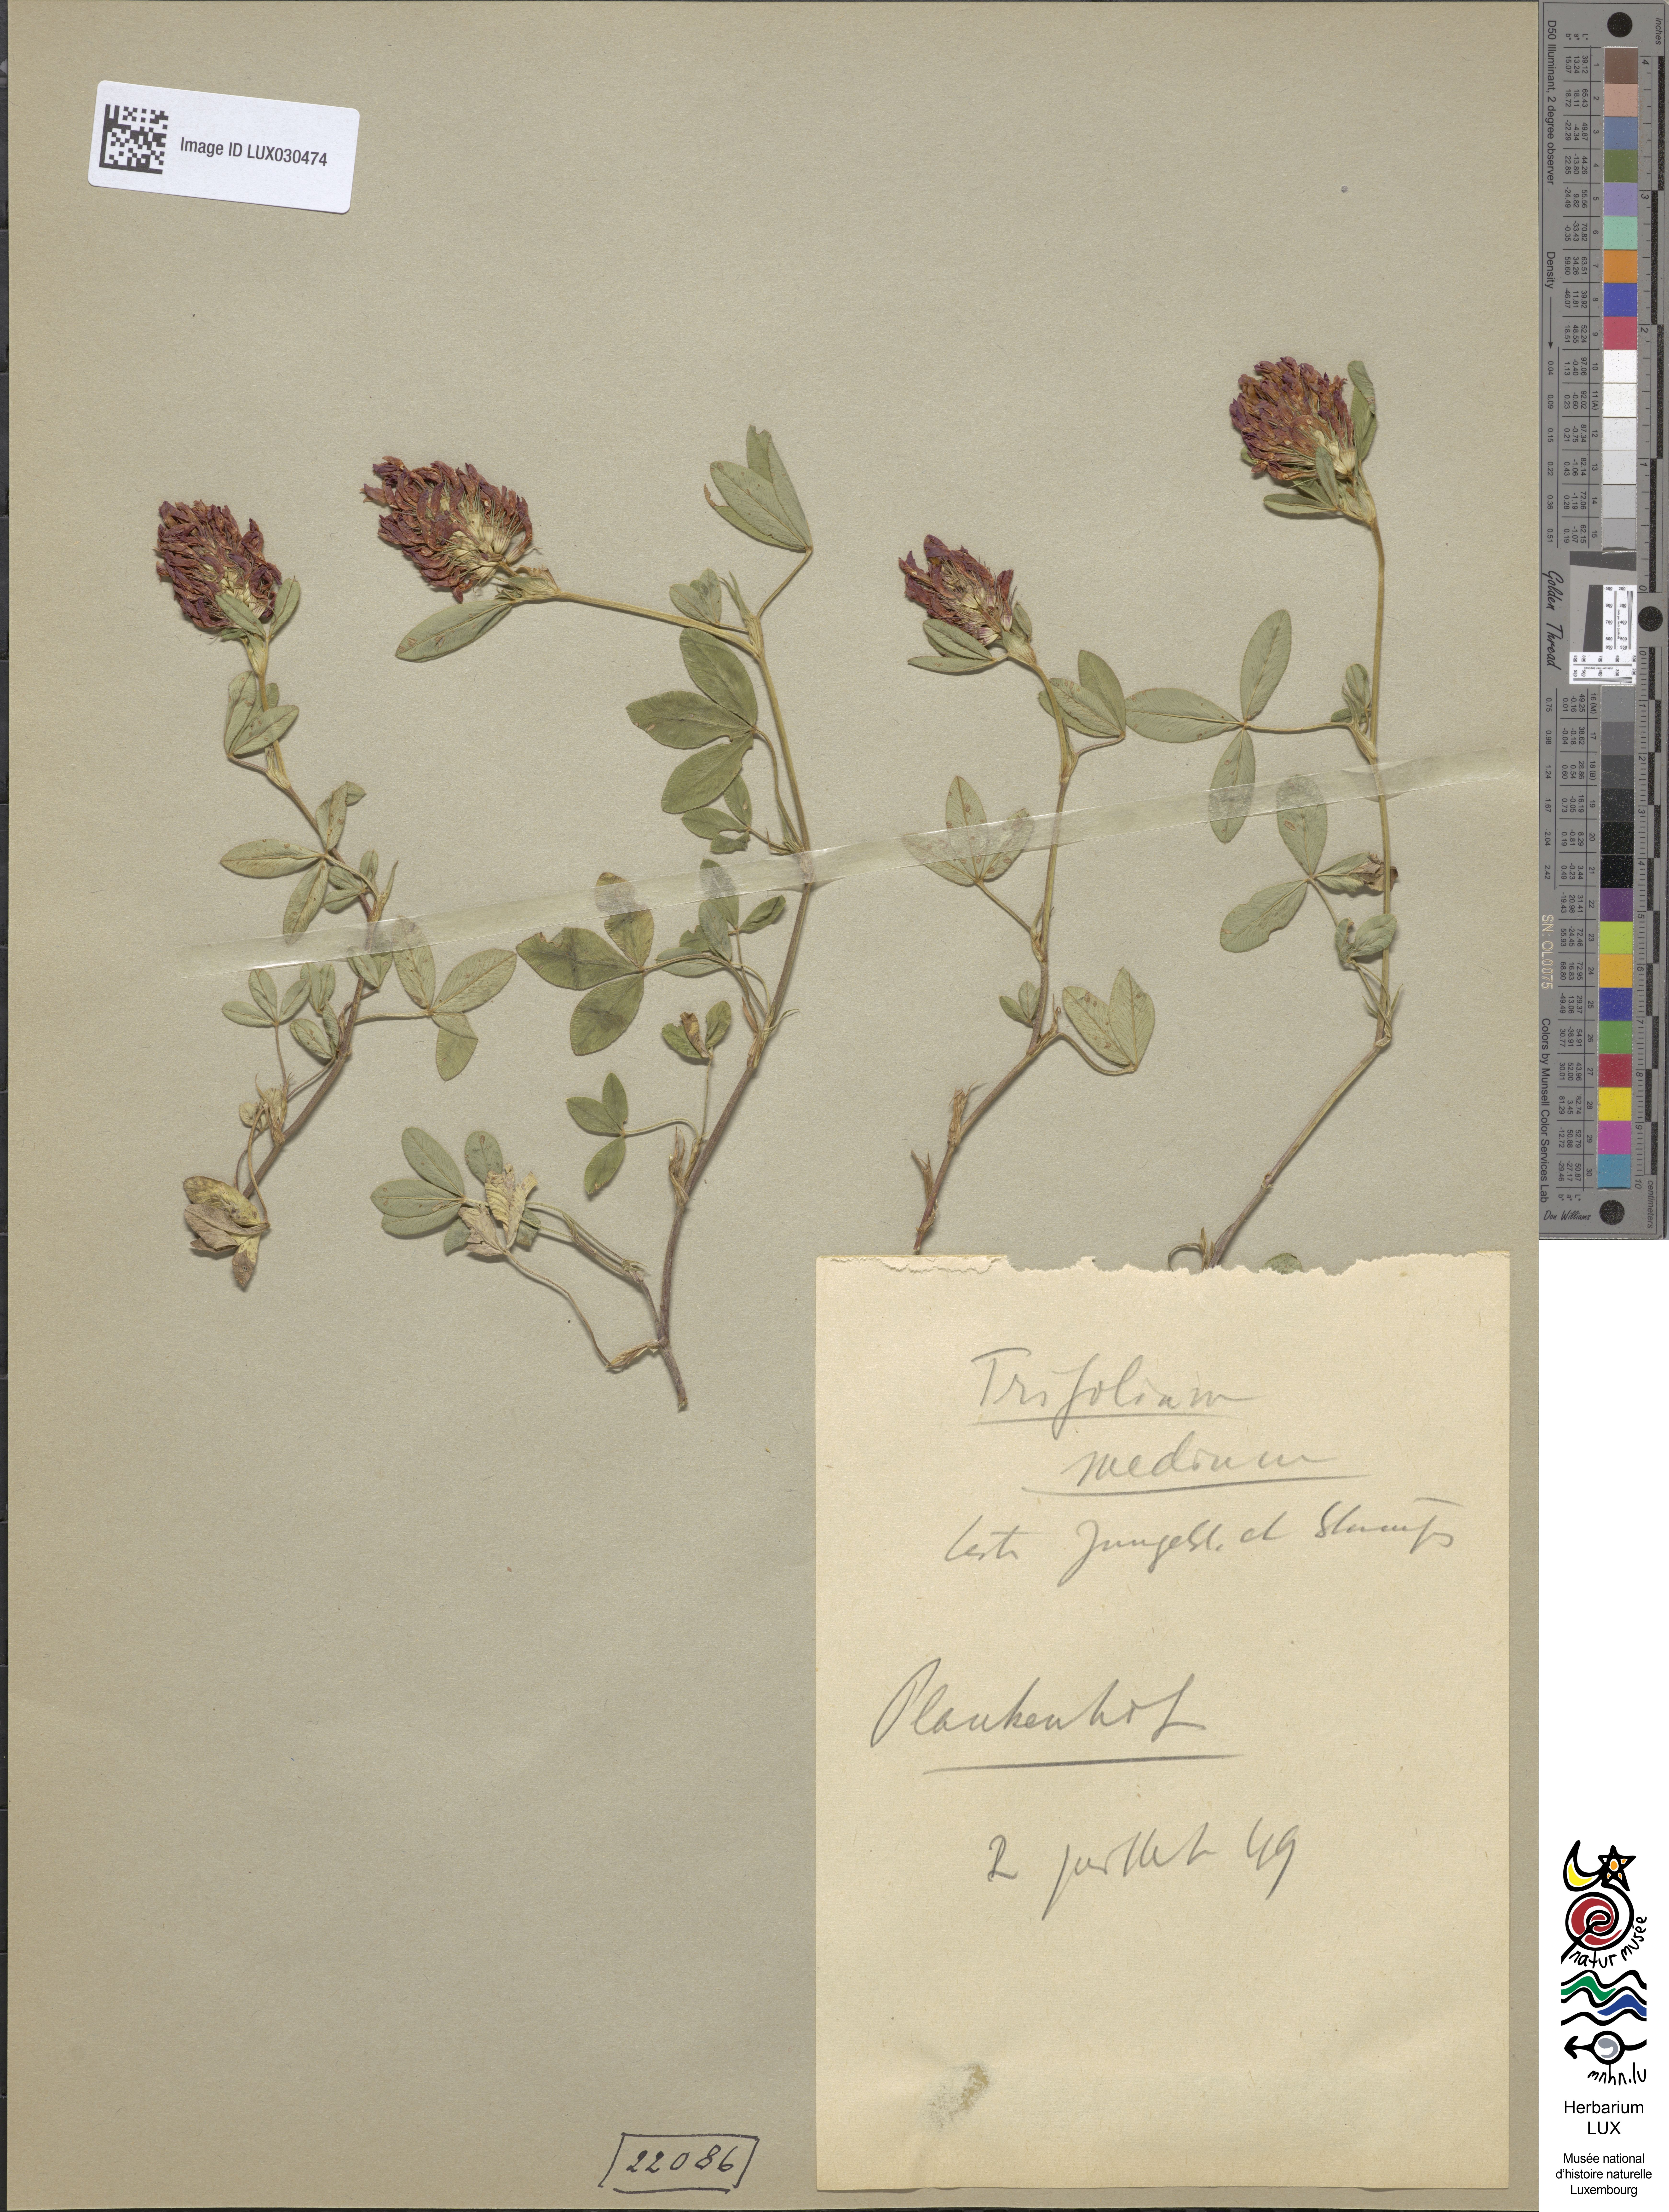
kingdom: Plantae
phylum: Tracheophyta
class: Magnoliopsida
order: Fabales
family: Fabaceae
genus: Trifolium
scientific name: Trifolium medium
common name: Zigzag clover
